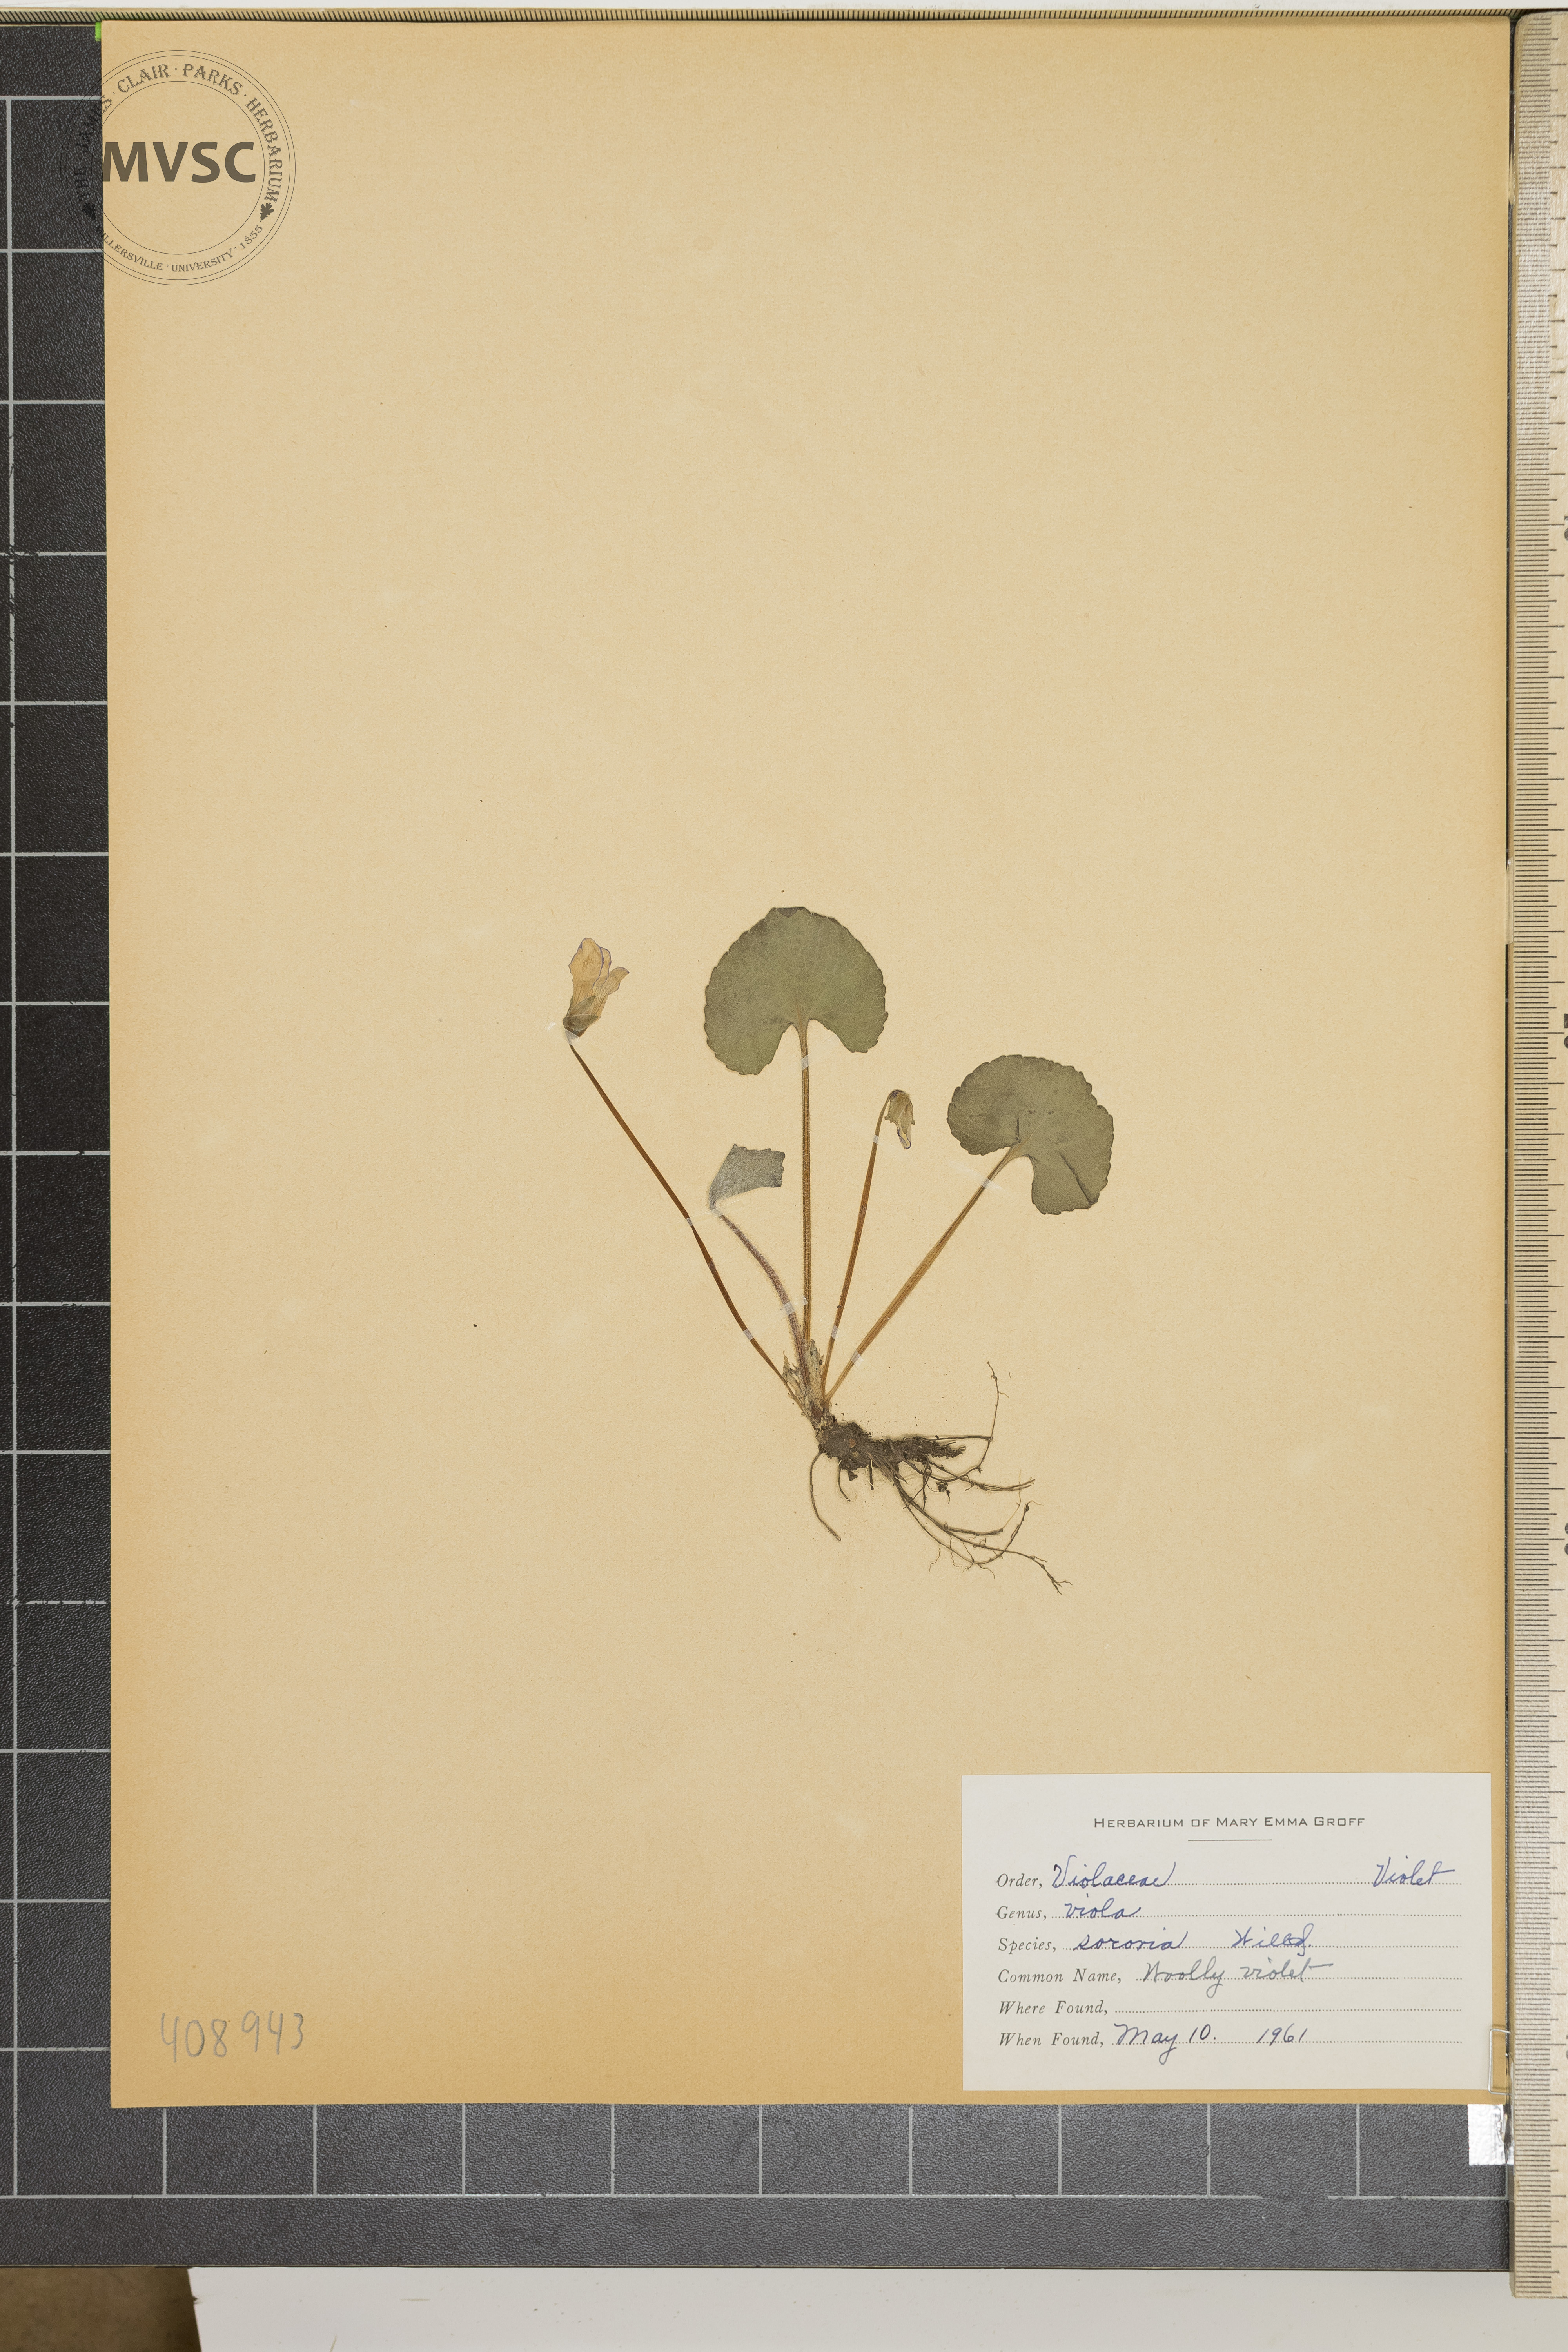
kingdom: Plantae
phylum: Tracheophyta
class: Magnoliopsida
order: Malpighiales
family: Violaceae
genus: Viola
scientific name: Viola sororia
